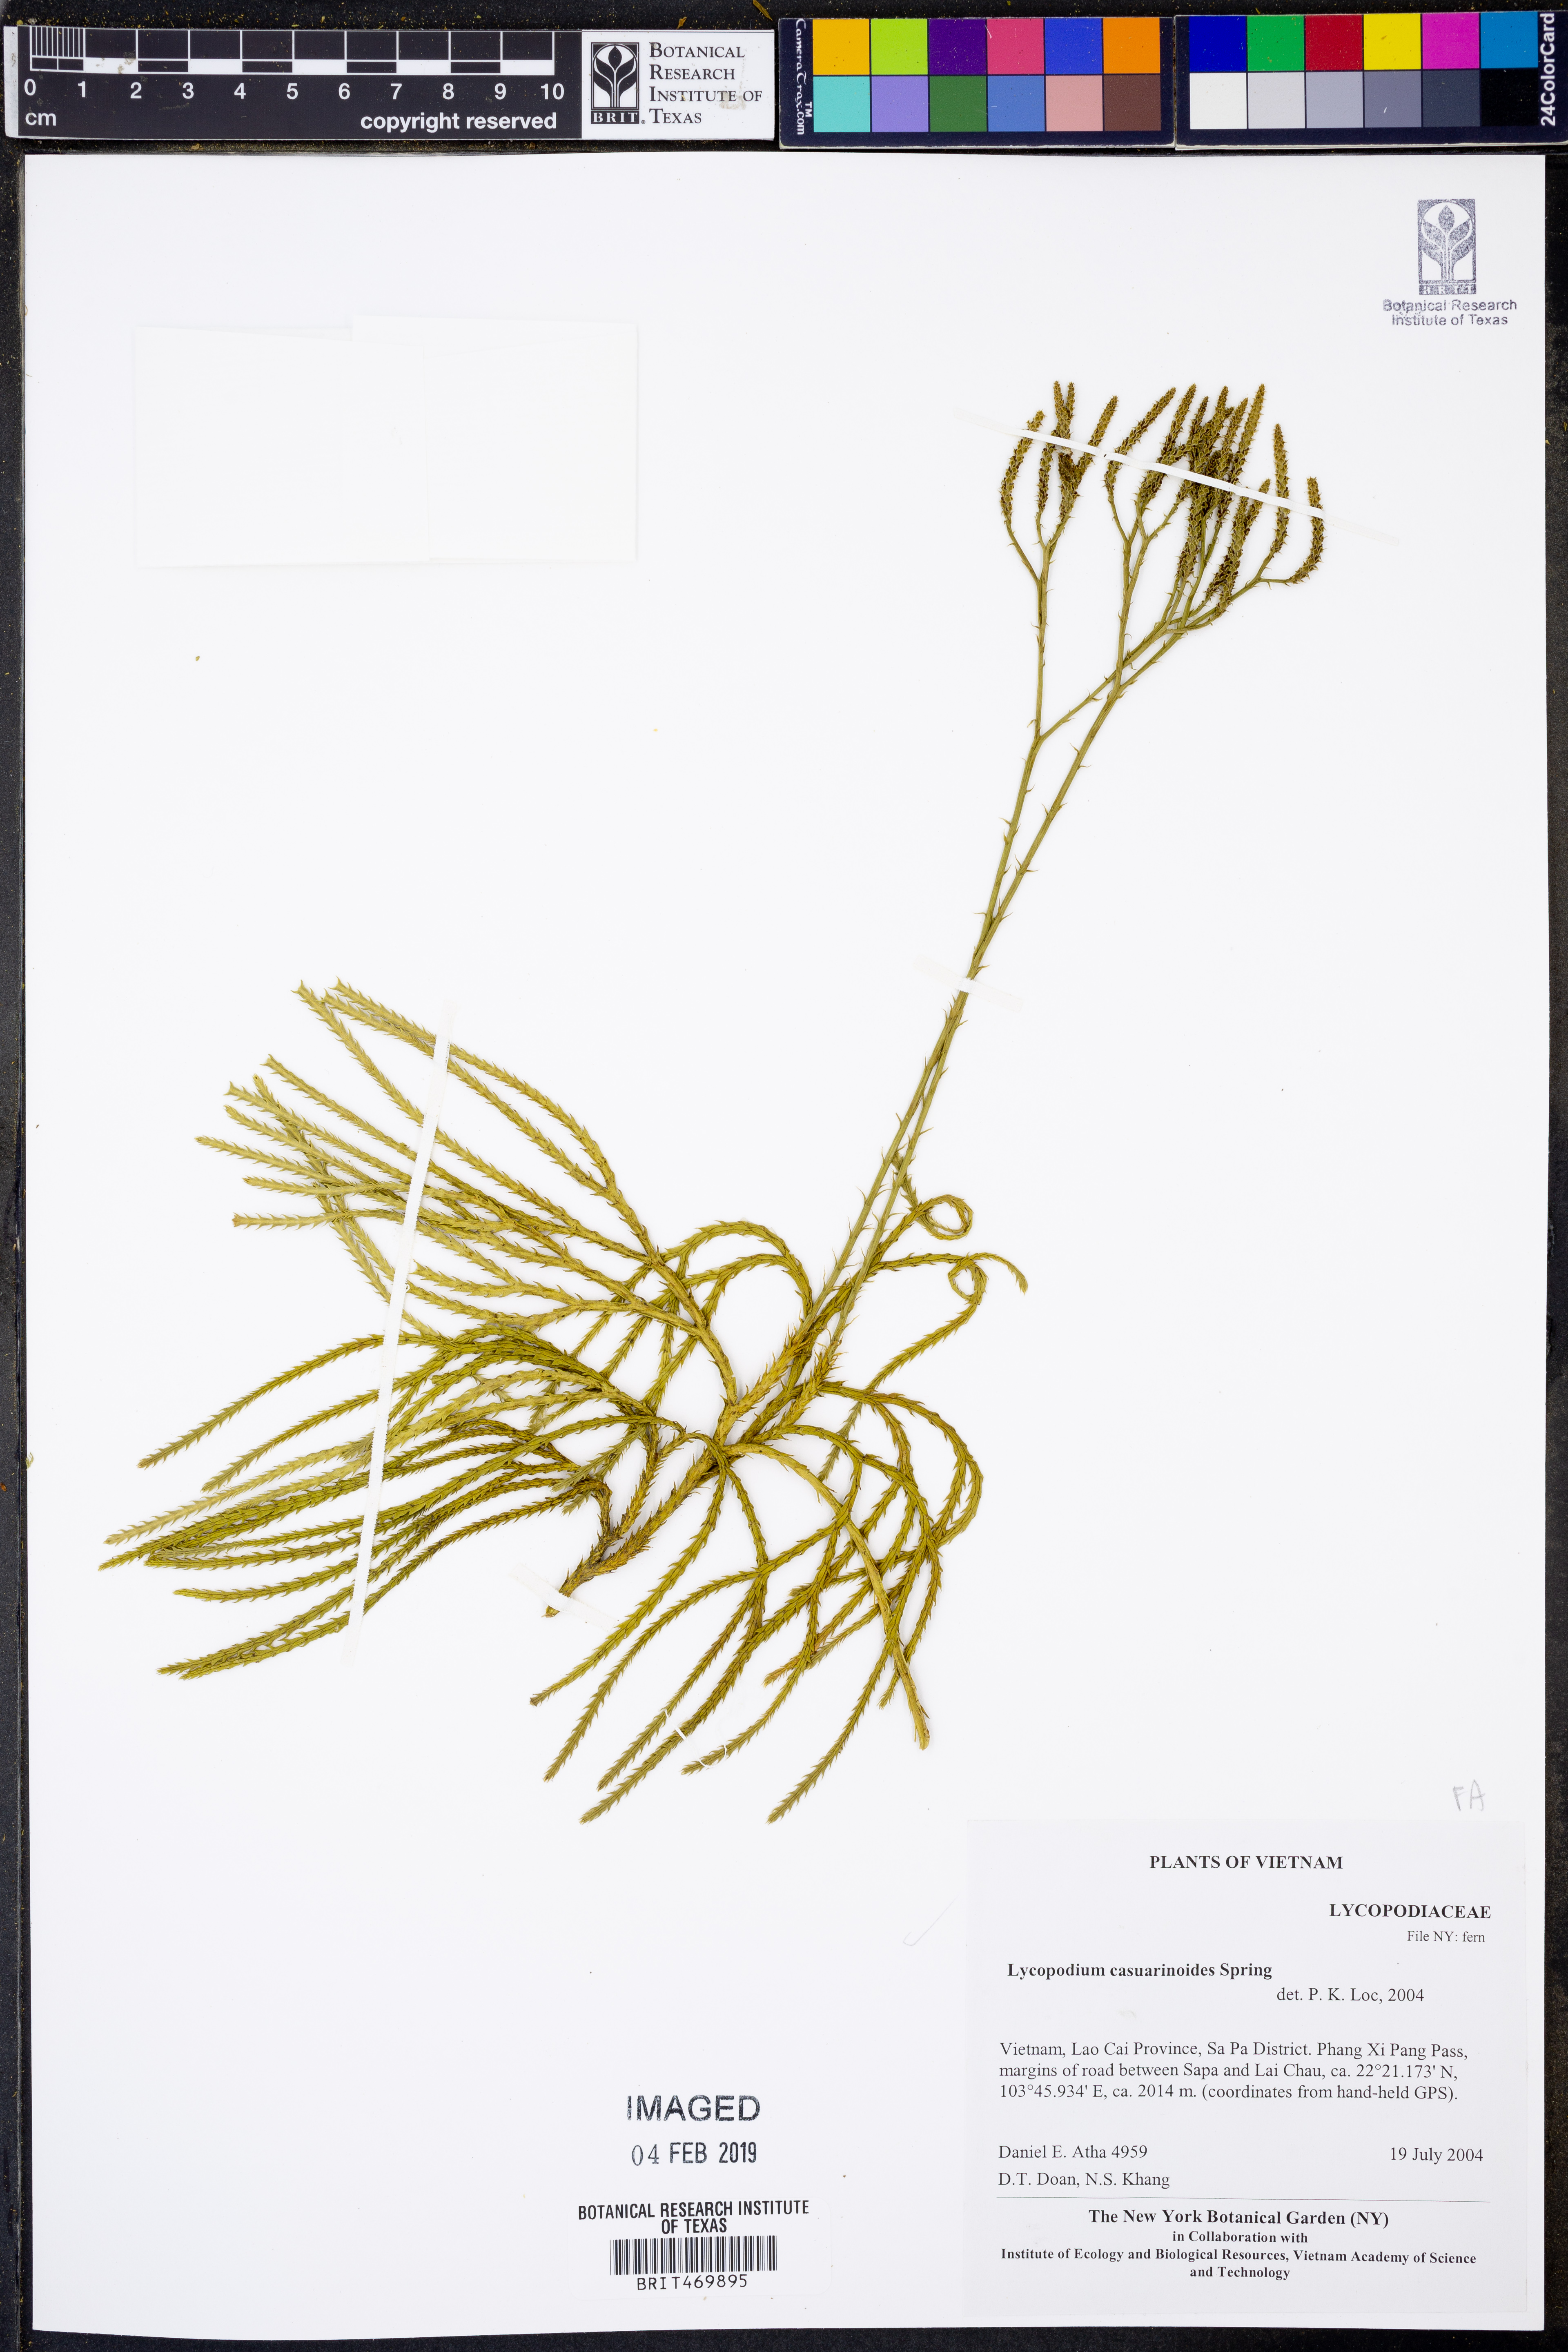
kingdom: Plantae
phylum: Tracheophyta
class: Lycopodiopsida
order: Lycopodiales
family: Lycopodiaceae
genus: Lycopodiastrum
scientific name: Lycopodiastrum casuarinoides
